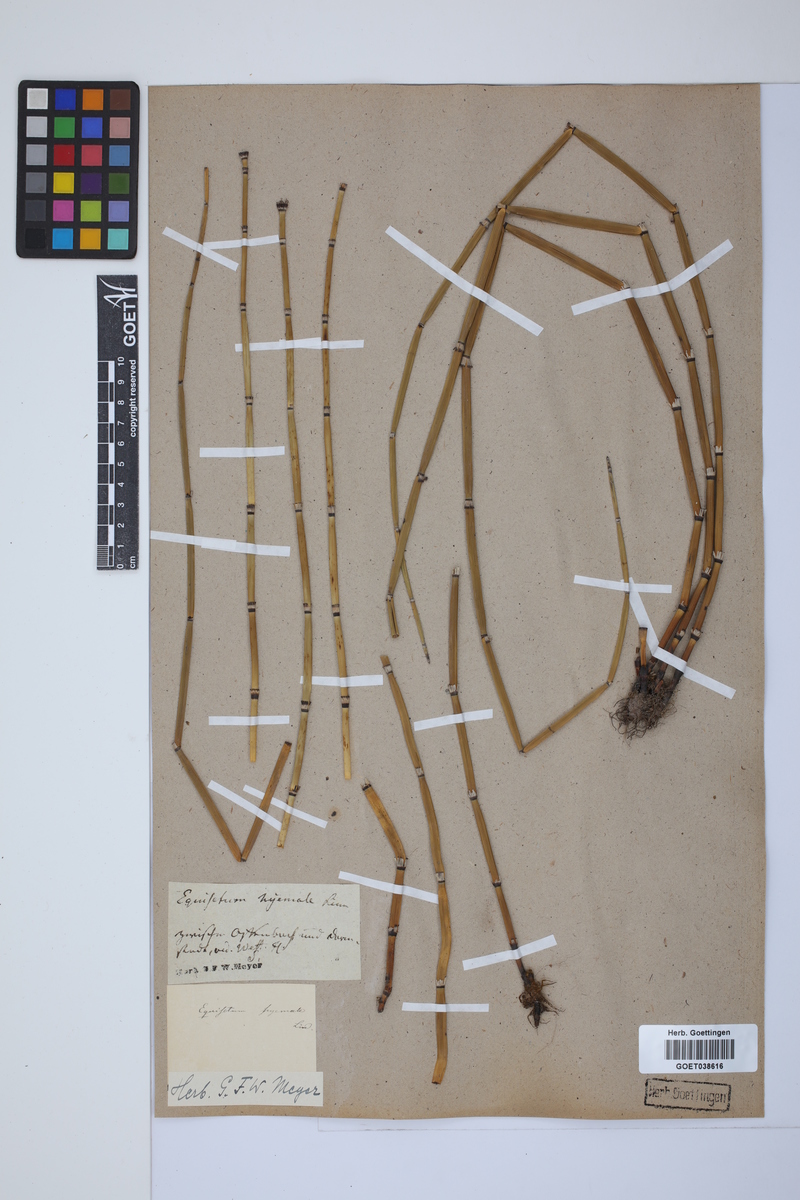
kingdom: Plantae
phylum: Tracheophyta
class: Polypodiopsida
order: Equisetales
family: Equisetaceae
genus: Equisetum
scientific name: Equisetum hyemale
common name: Rough horsetail
